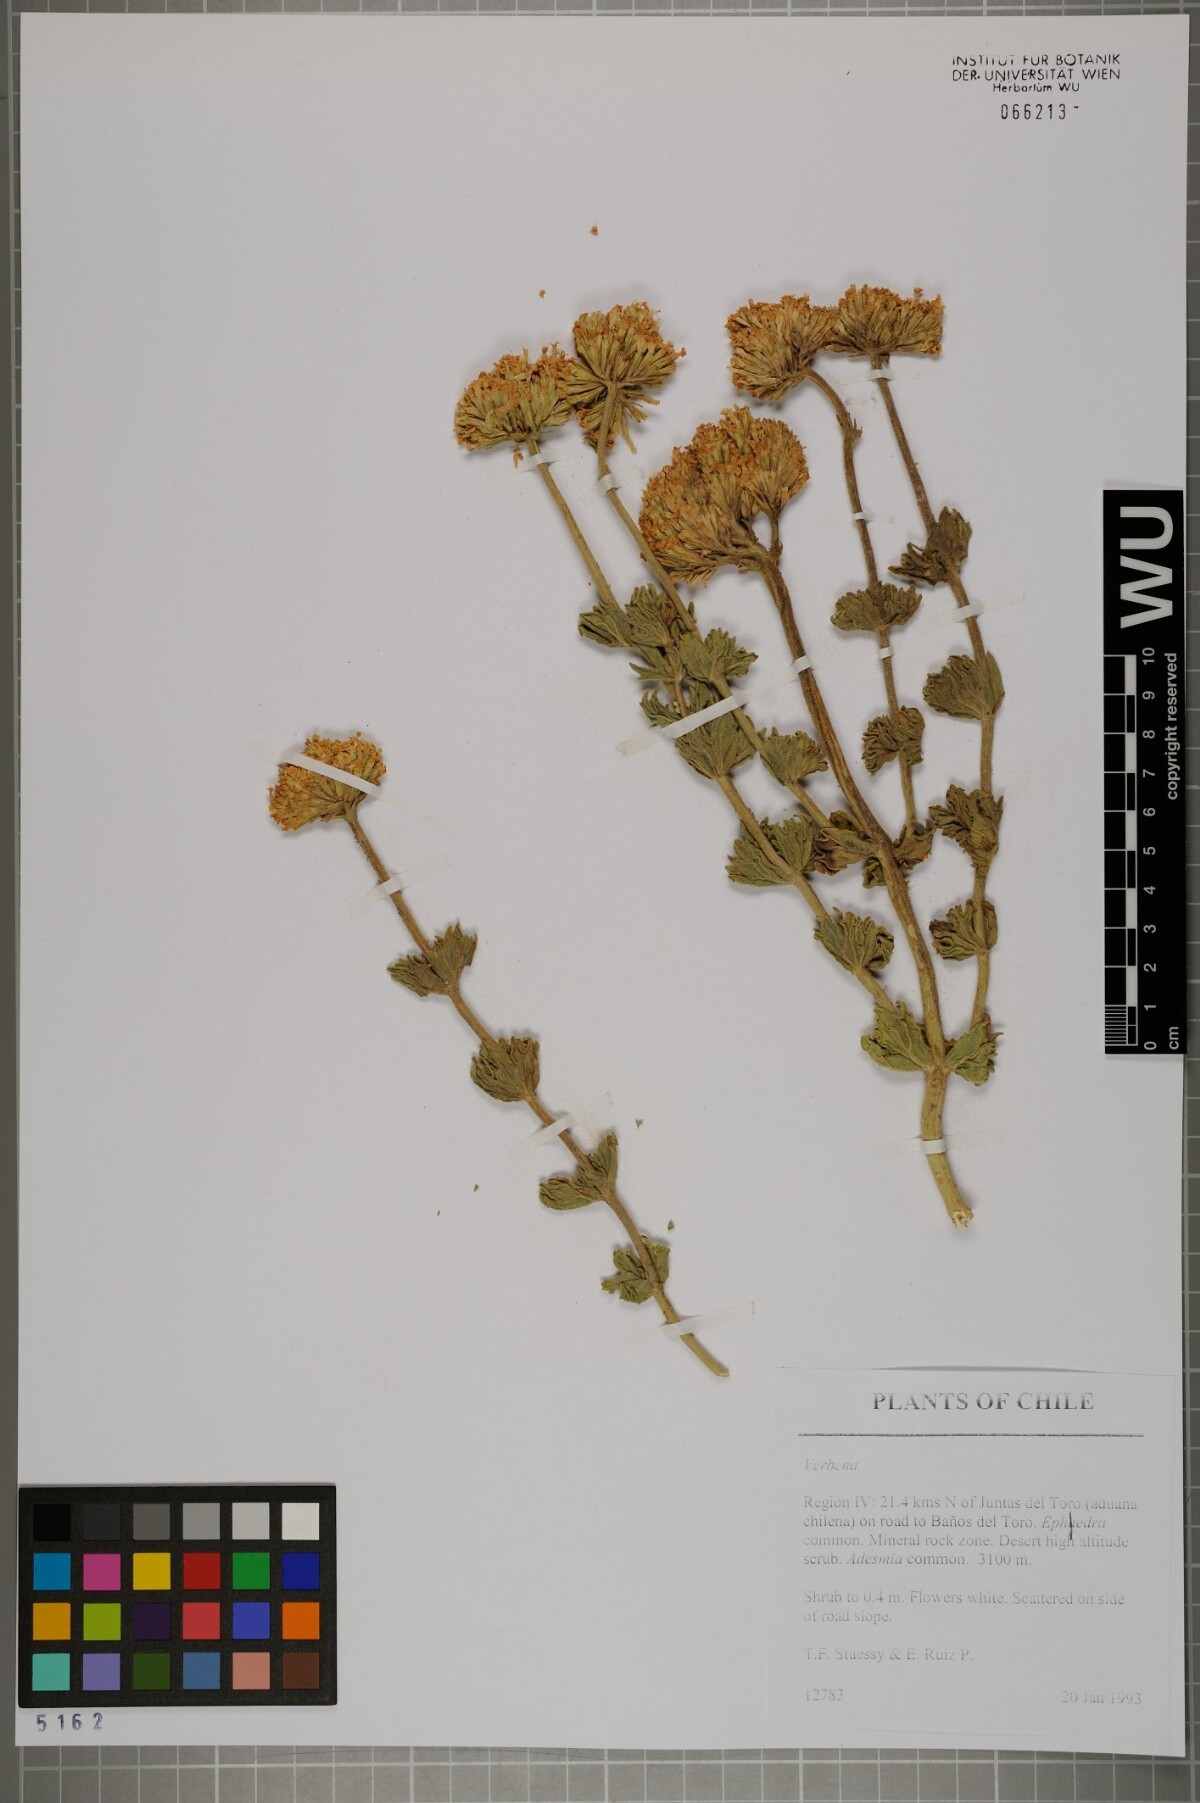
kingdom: Plantae
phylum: Tracheophyta
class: Magnoliopsida
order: Lamiales
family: Verbenaceae
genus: Verbena
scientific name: Verbena
